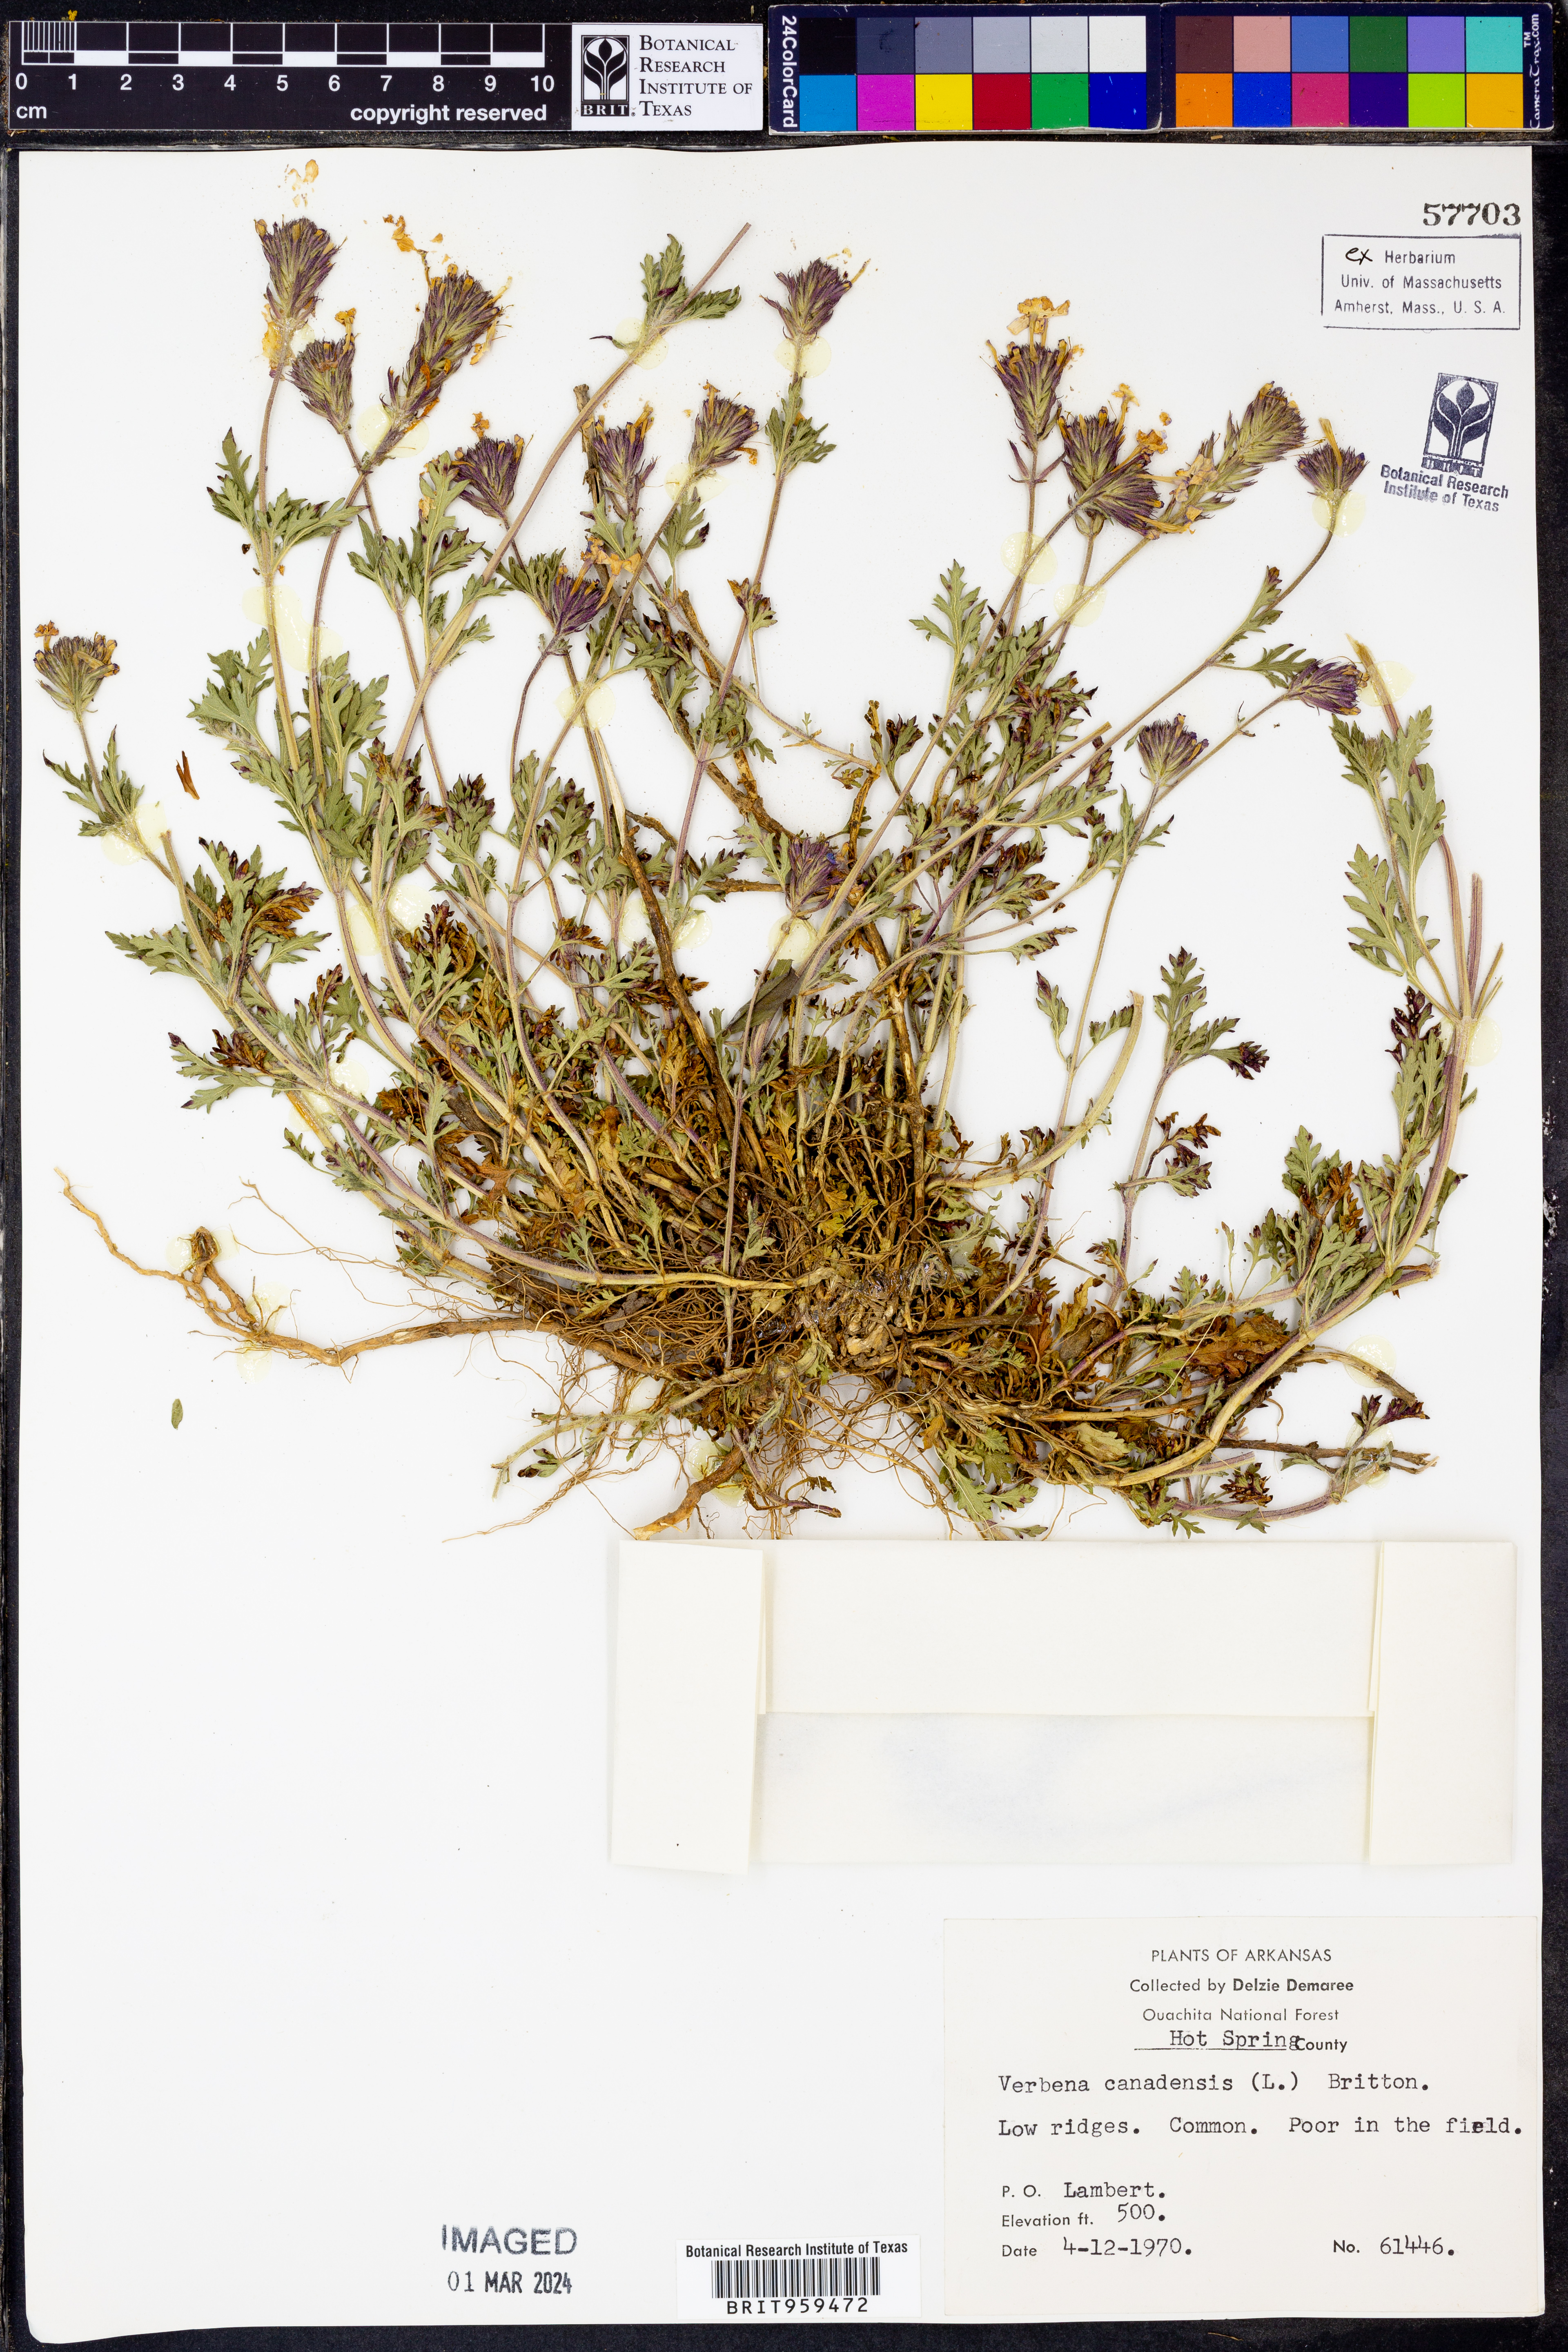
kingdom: Plantae
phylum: Tracheophyta
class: Magnoliopsida
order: Lamiales
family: Verbenaceae
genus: Verbena
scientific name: Verbena canadensis
